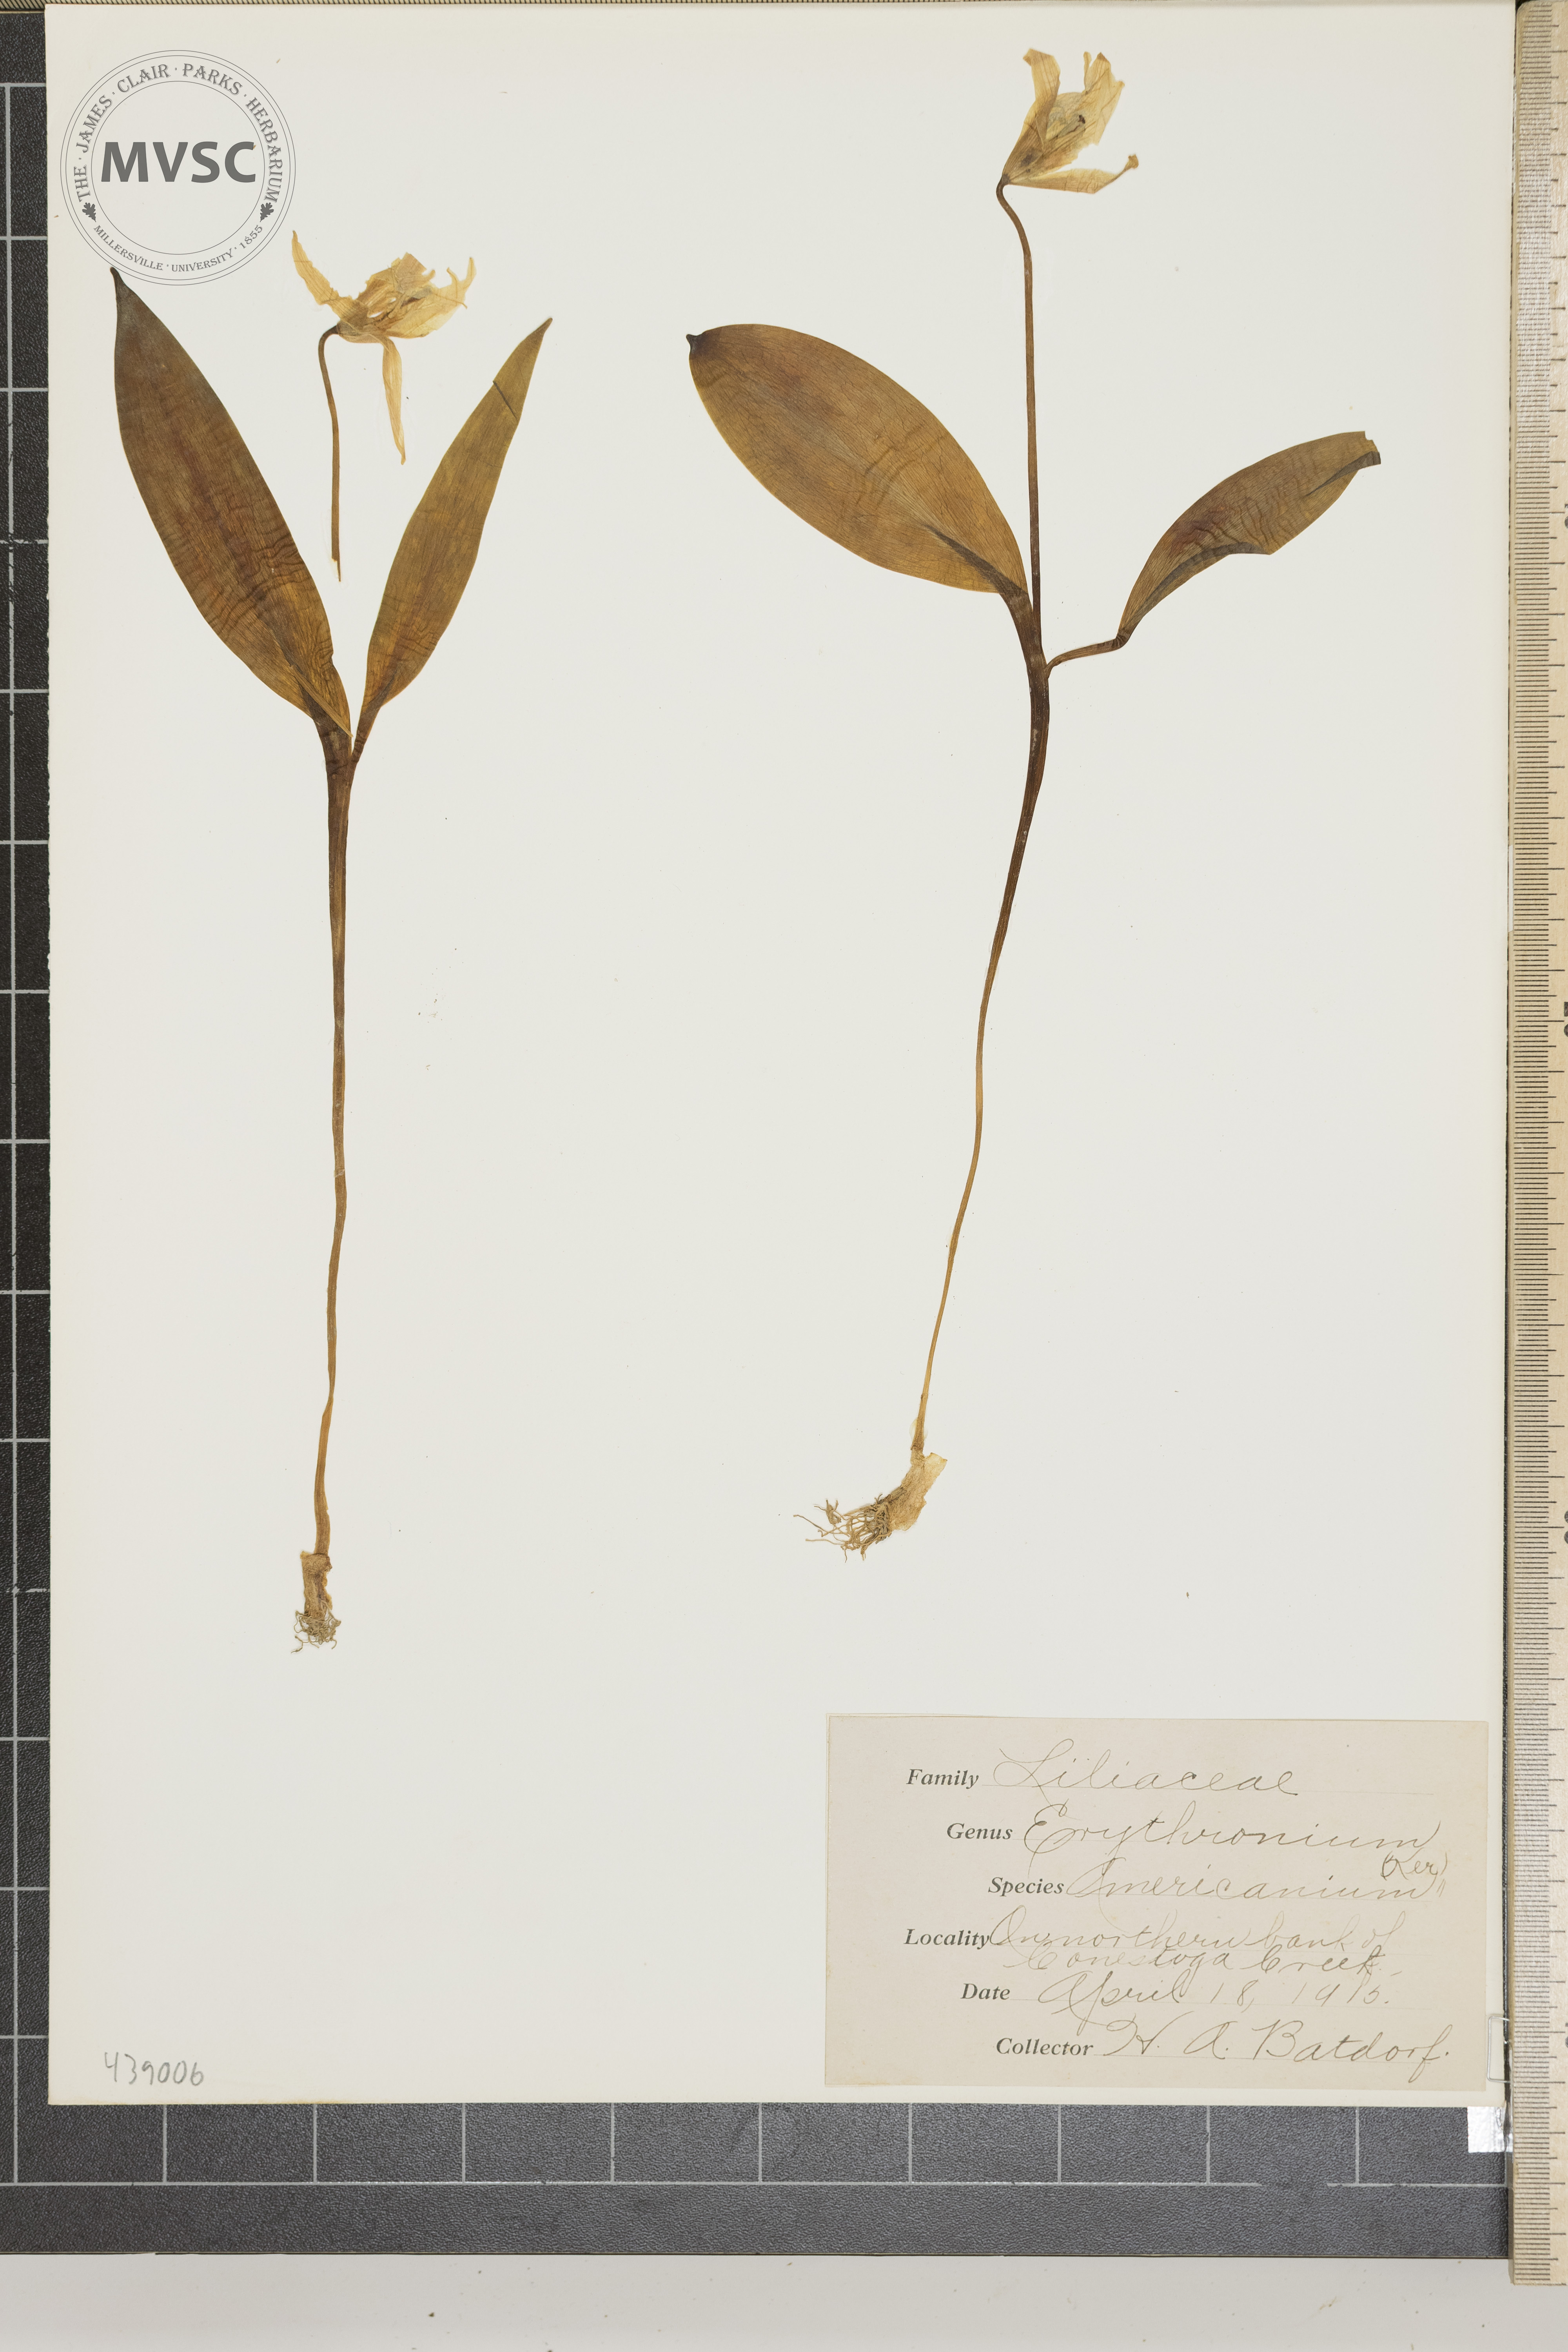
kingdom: Plantae
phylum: Tracheophyta
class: Liliopsida
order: Liliales
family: Liliaceae
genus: Erythronium
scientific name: Erythronium americanum
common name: Yellow adder's-tongue
